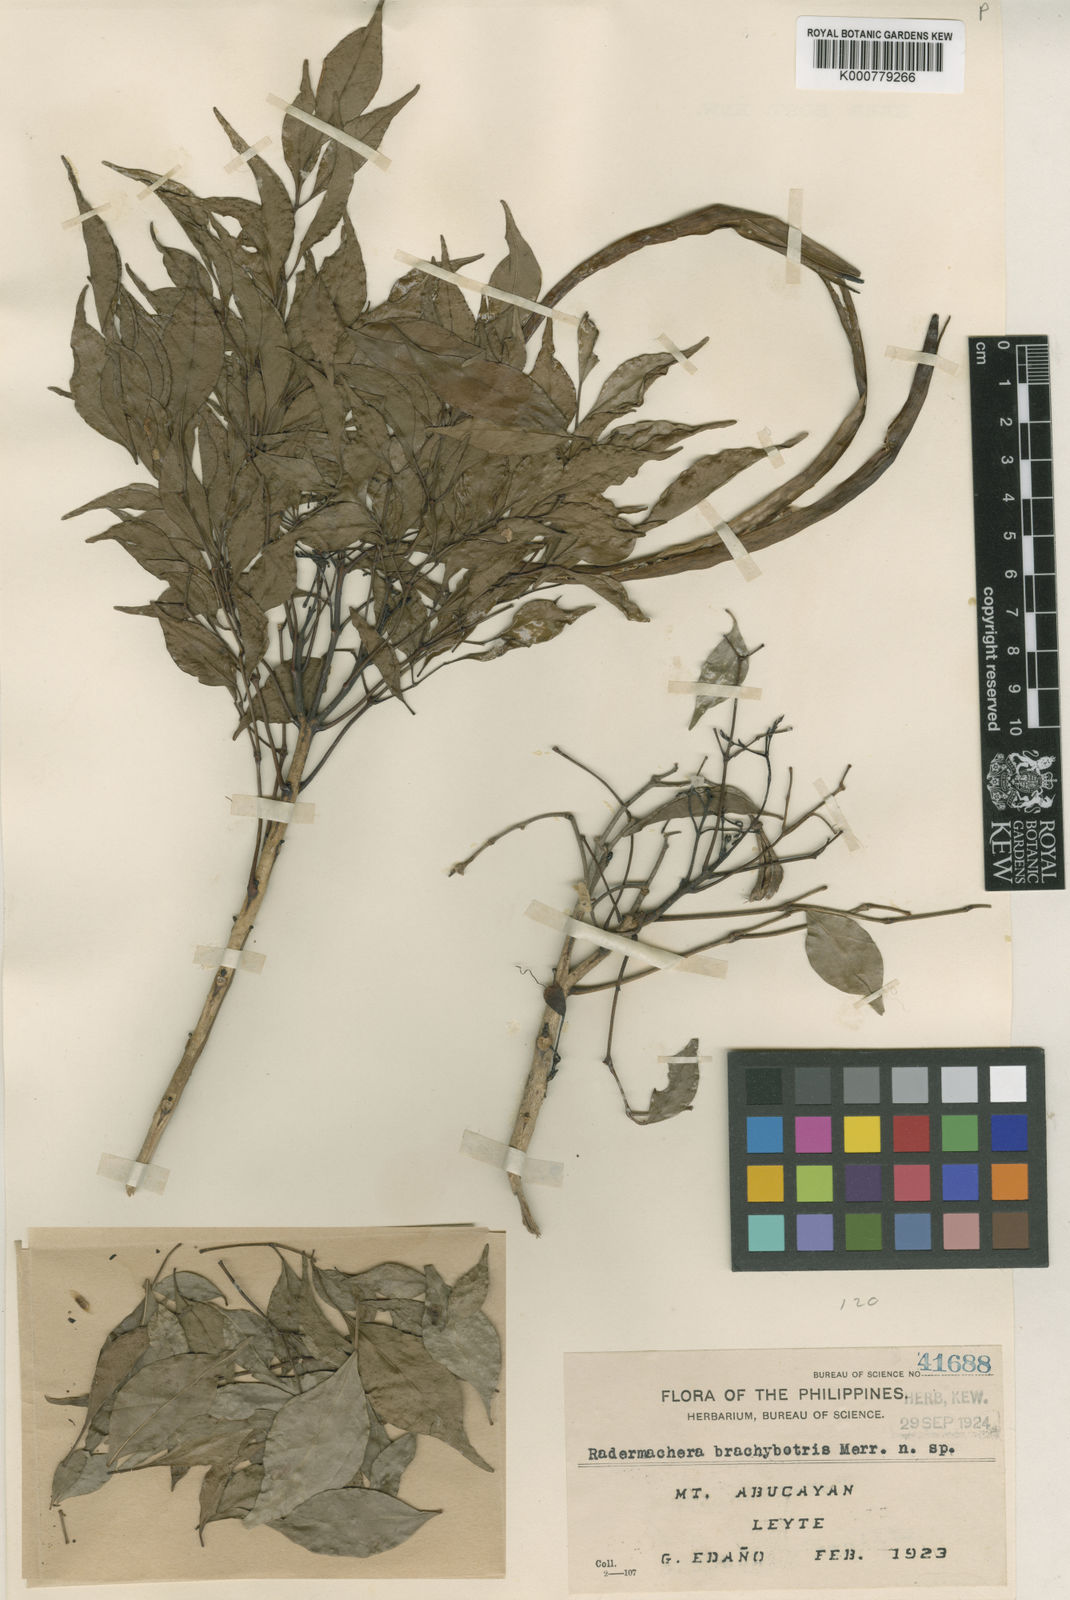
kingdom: Plantae
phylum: Tracheophyta
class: Magnoliopsida
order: Lamiales
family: Bignoniaceae
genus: Radermachera
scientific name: Radermachera pinnata
